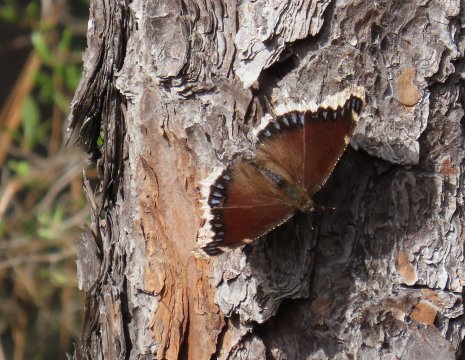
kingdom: Animalia
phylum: Arthropoda
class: Insecta
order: Lepidoptera
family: Nymphalidae
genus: Nymphalis
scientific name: Nymphalis antiopa
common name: Mourning Cloak
